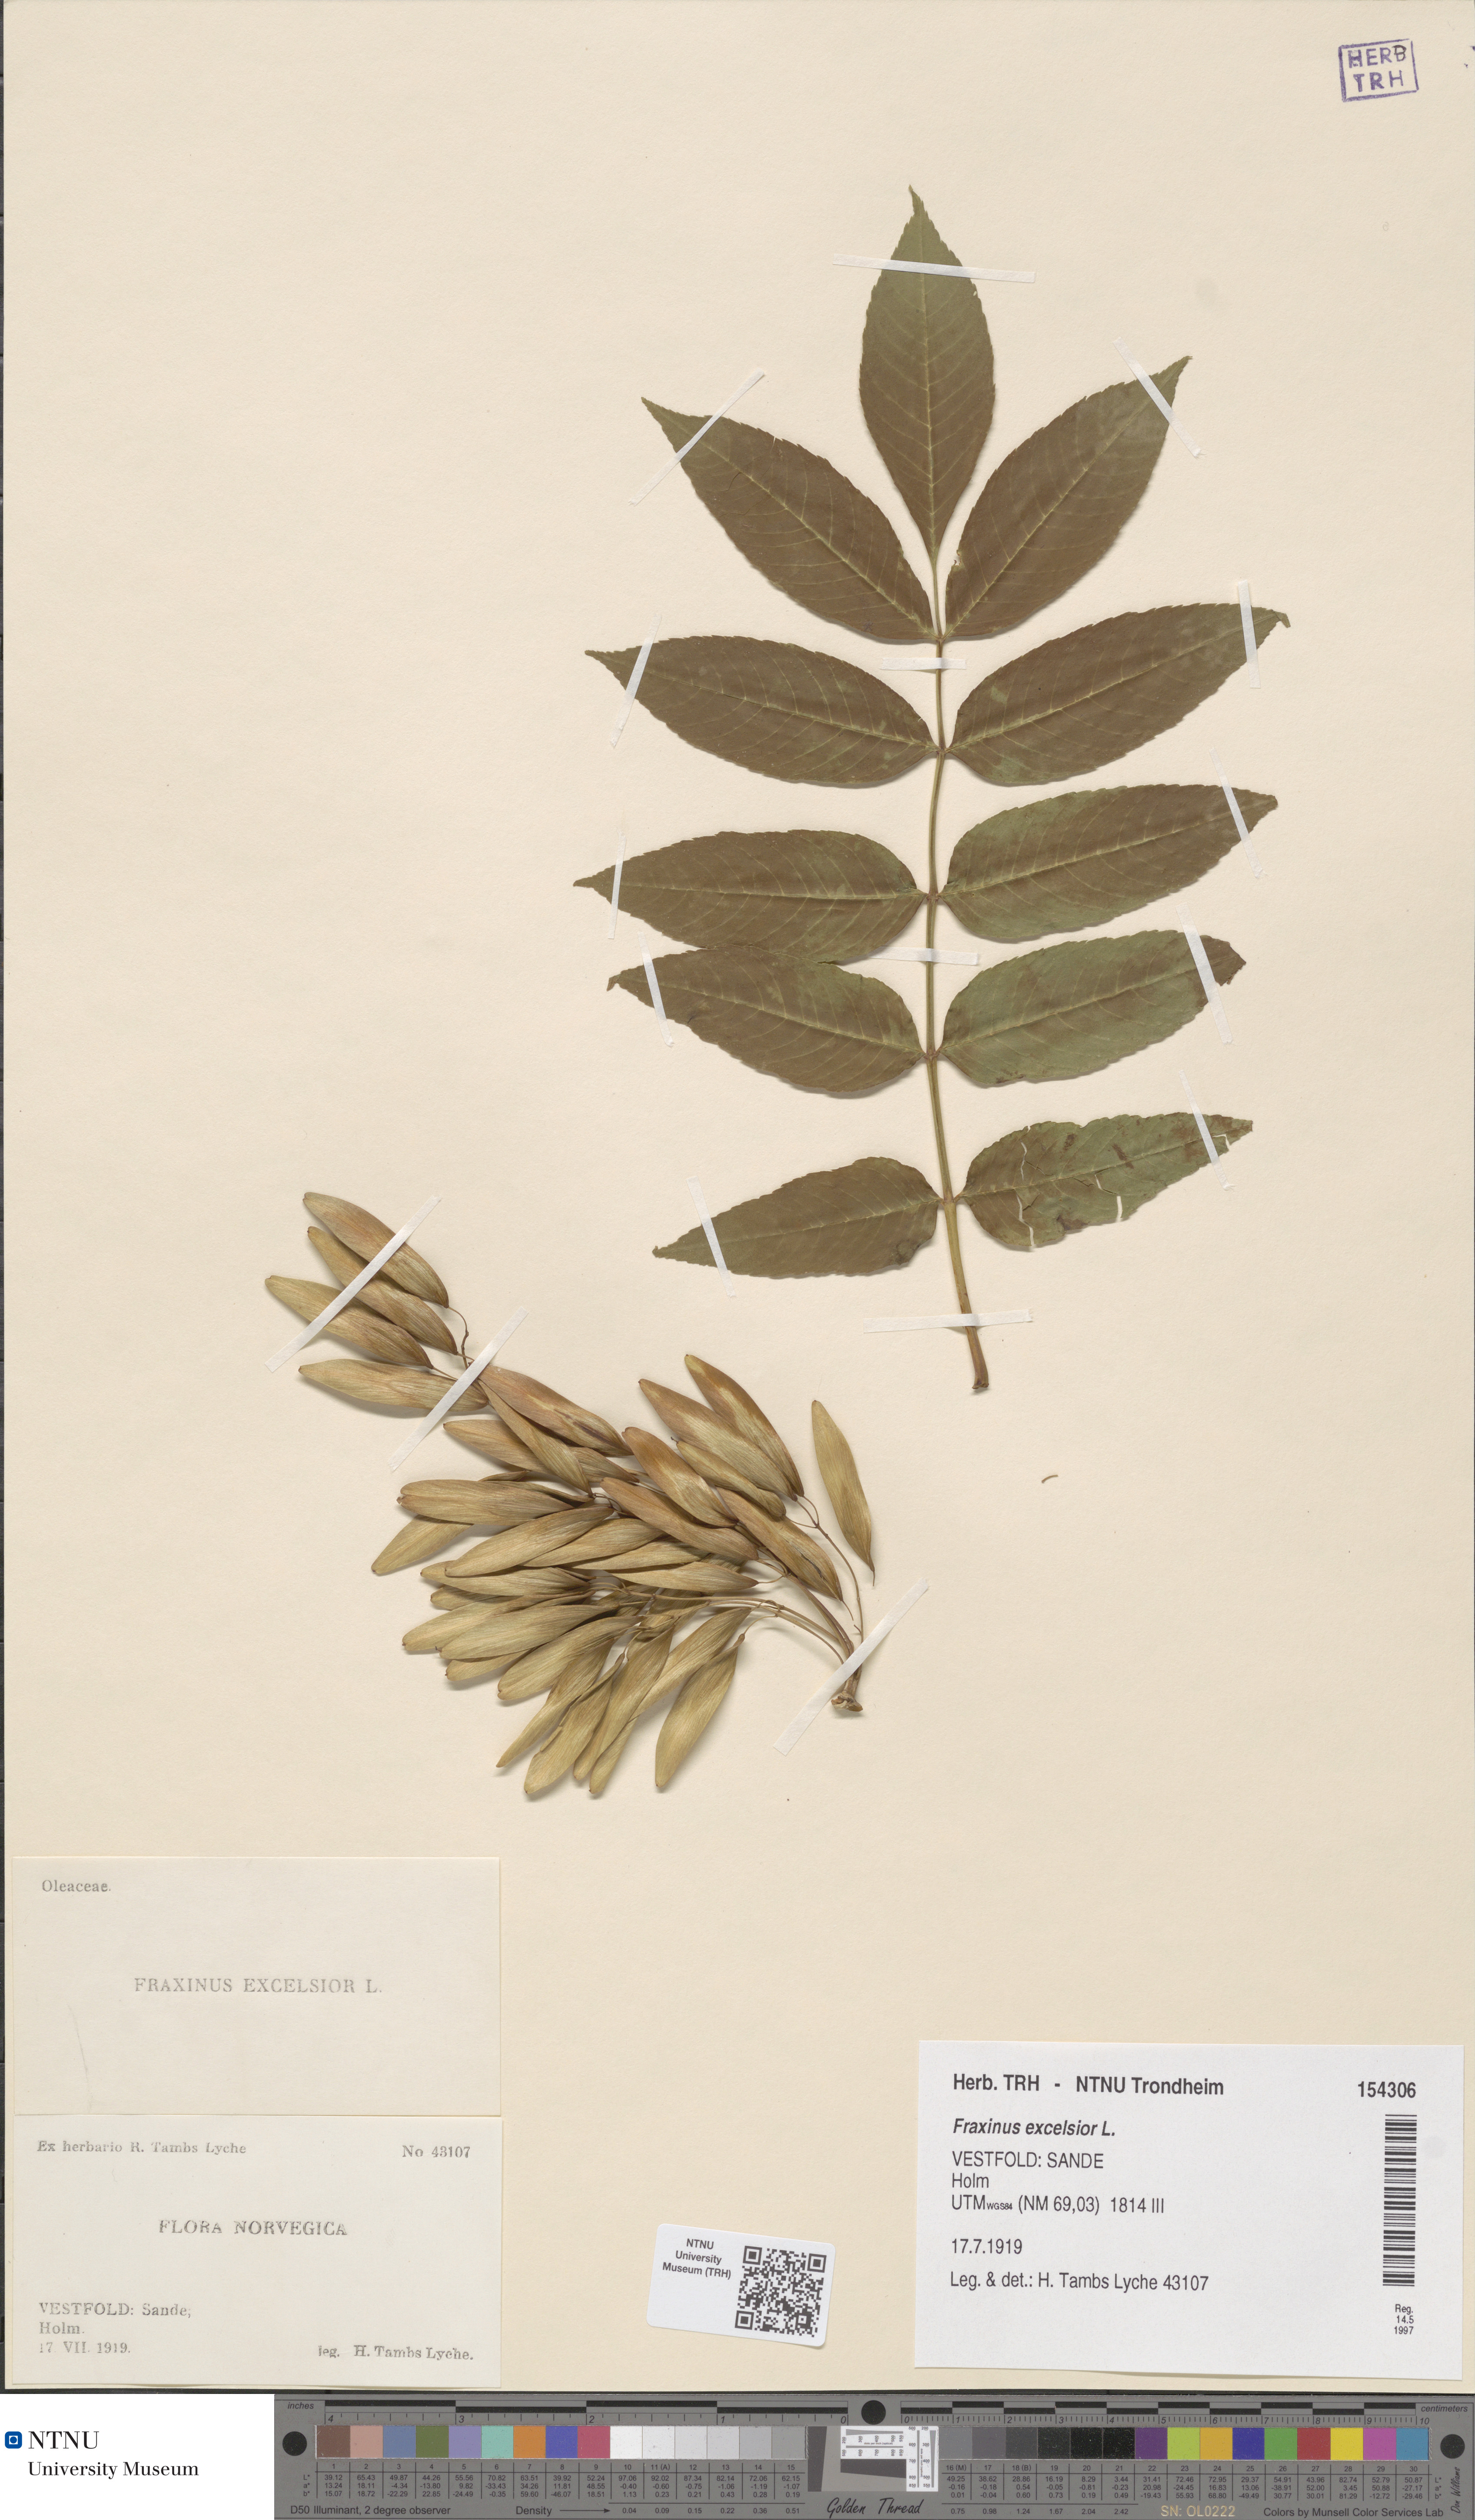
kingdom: Plantae
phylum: Tracheophyta
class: Magnoliopsida
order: Lamiales
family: Oleaceae
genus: Fraxinus
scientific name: Fraxinus excelsior
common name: European ash
